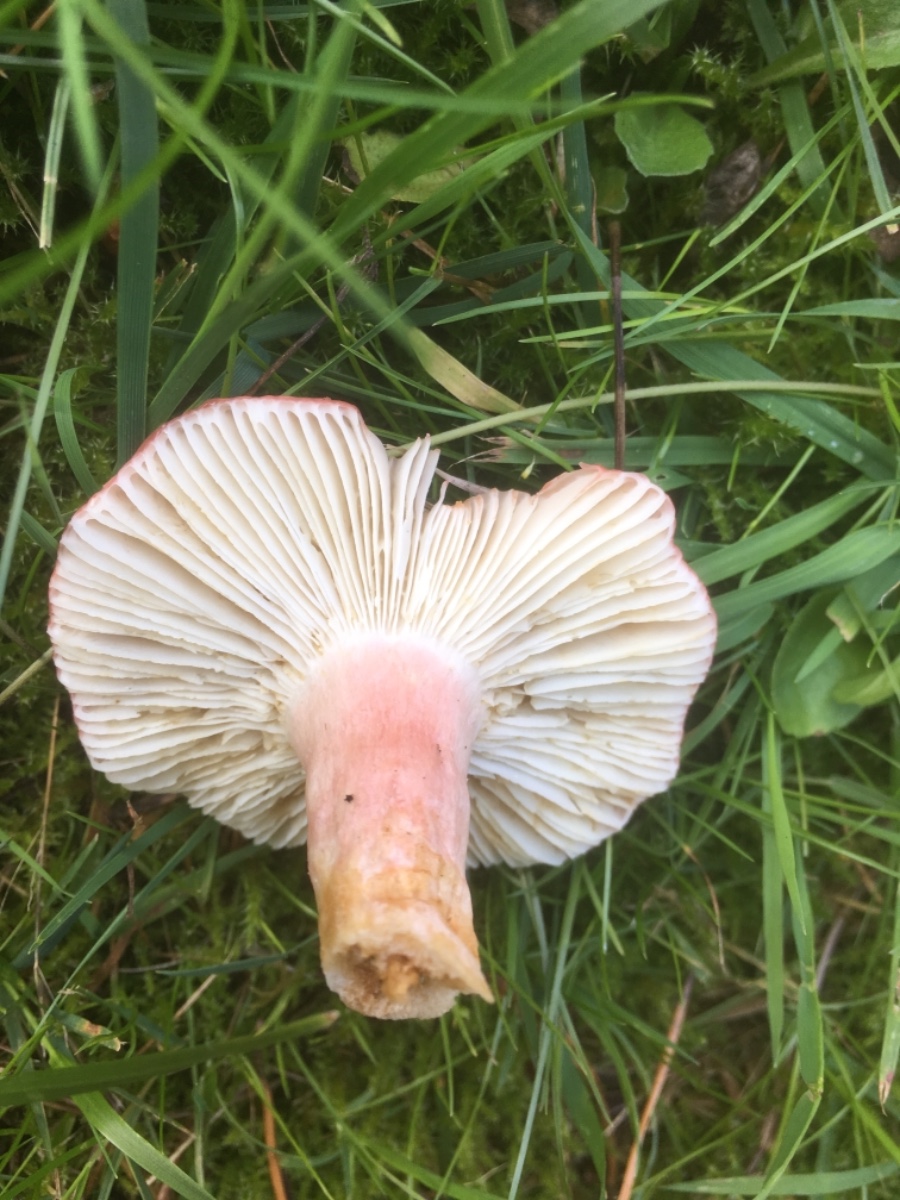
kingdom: Fungi
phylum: Basidiomycota
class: Agaricomycetes
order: Russulales
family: Russulaceae
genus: Russula
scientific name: Russula xerampelina
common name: hummer-skørhat
